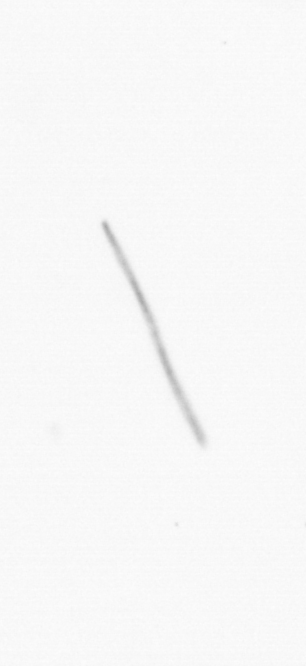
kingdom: Chromista
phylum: Ochrophyta
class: Bacillariophyceae
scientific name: Bacillariophyceae
